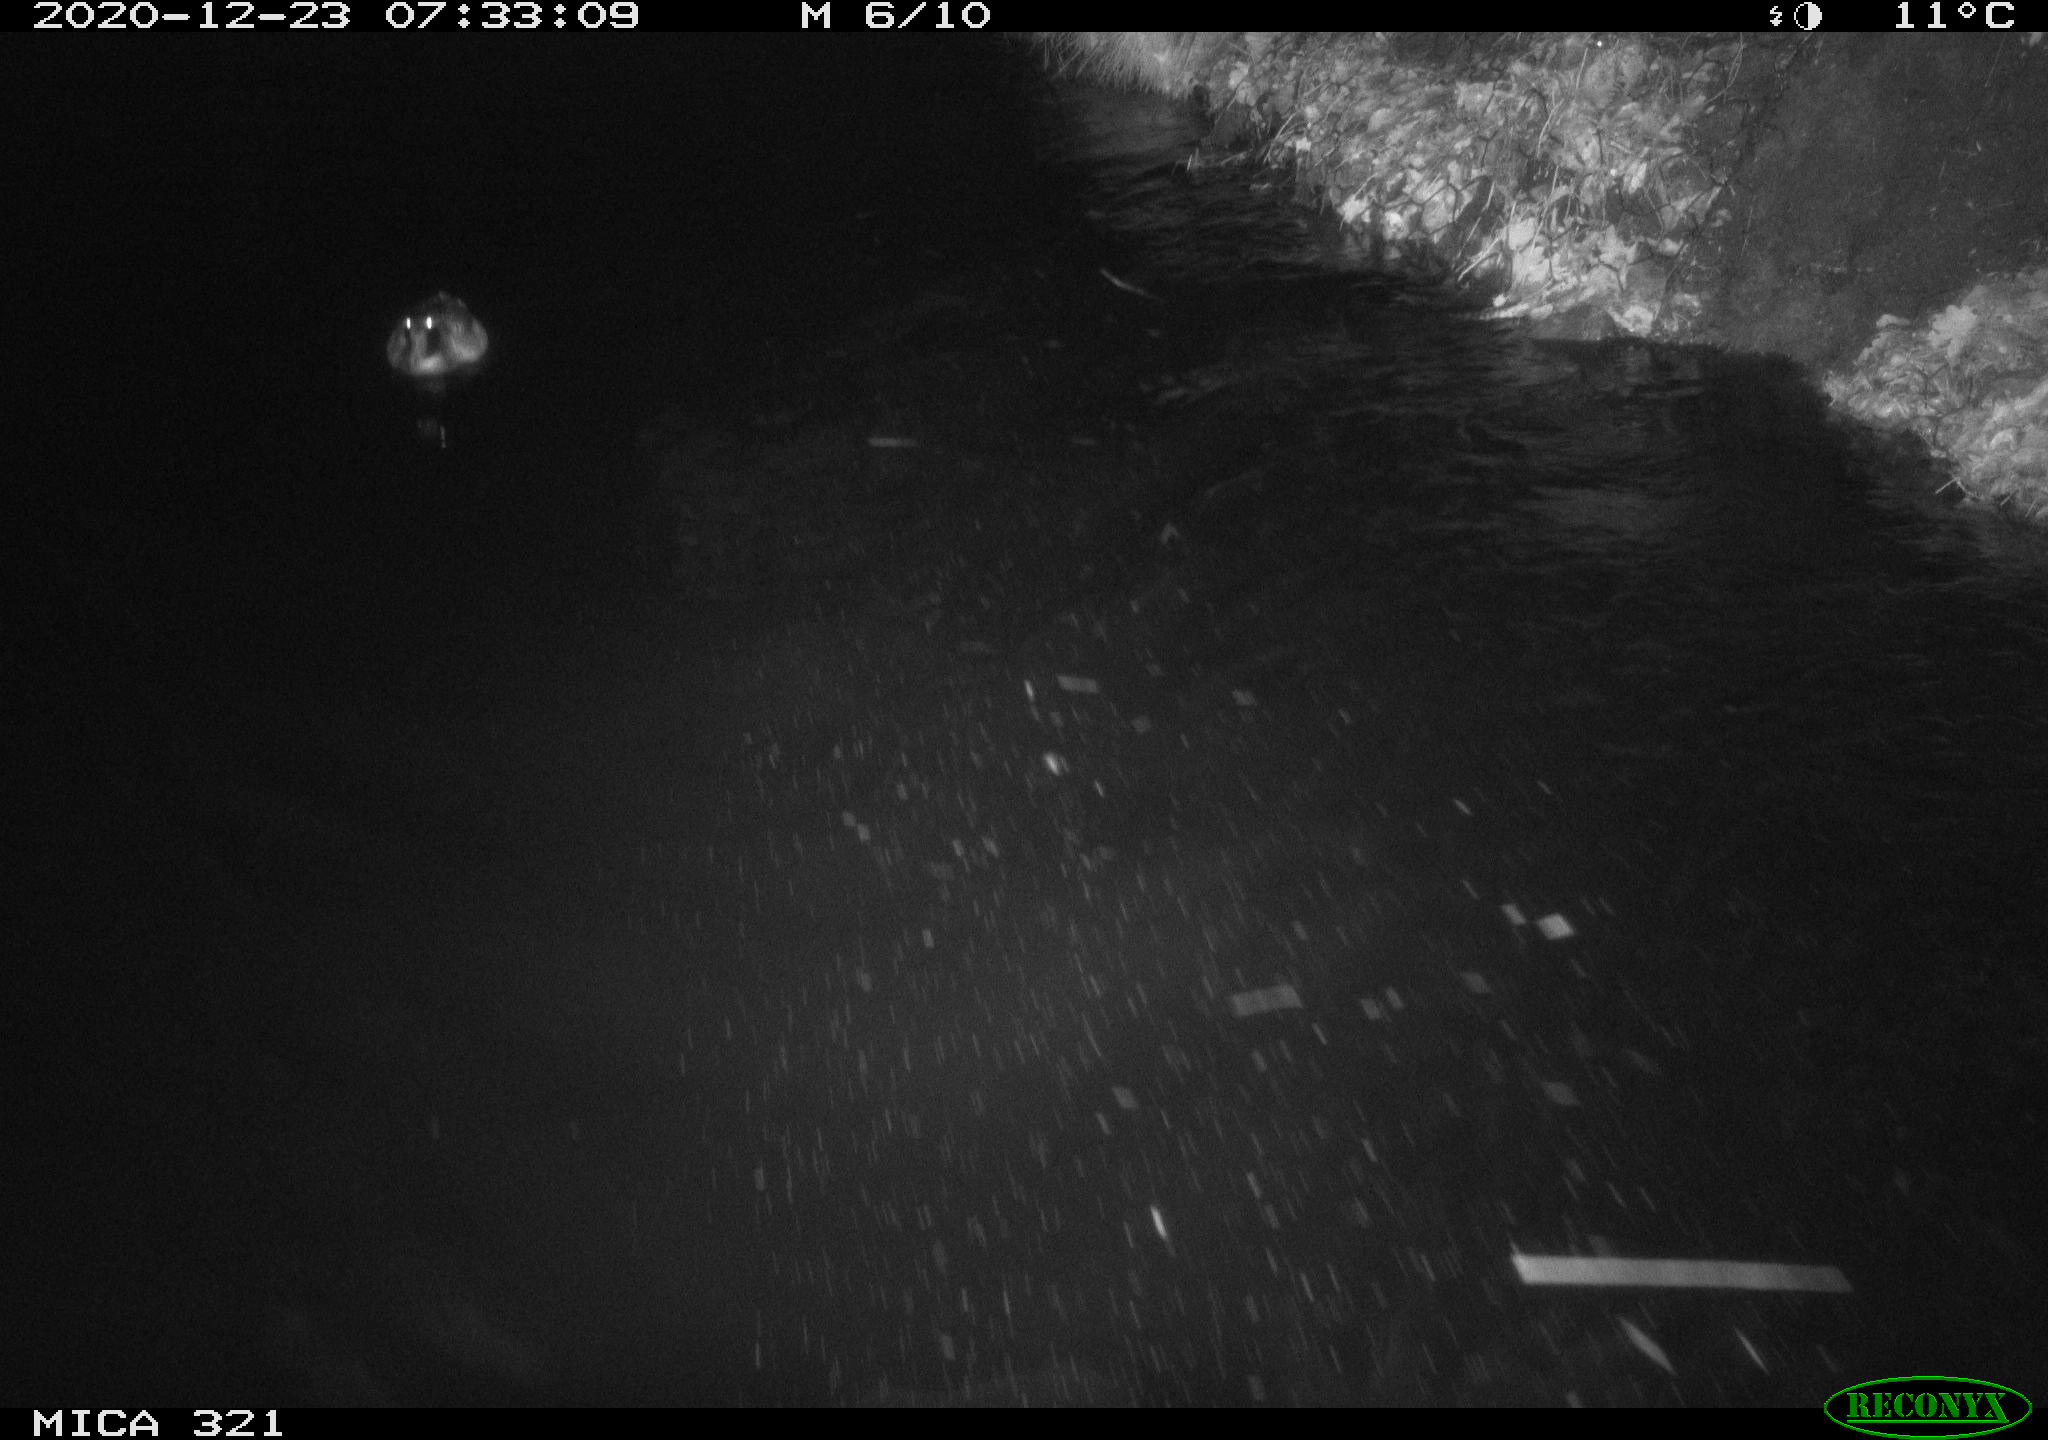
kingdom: Animalia
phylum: Chordata
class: Aves
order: Anseriformes
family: Anatidae
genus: Anas
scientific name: Anas platyrhynchos
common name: Mallard
